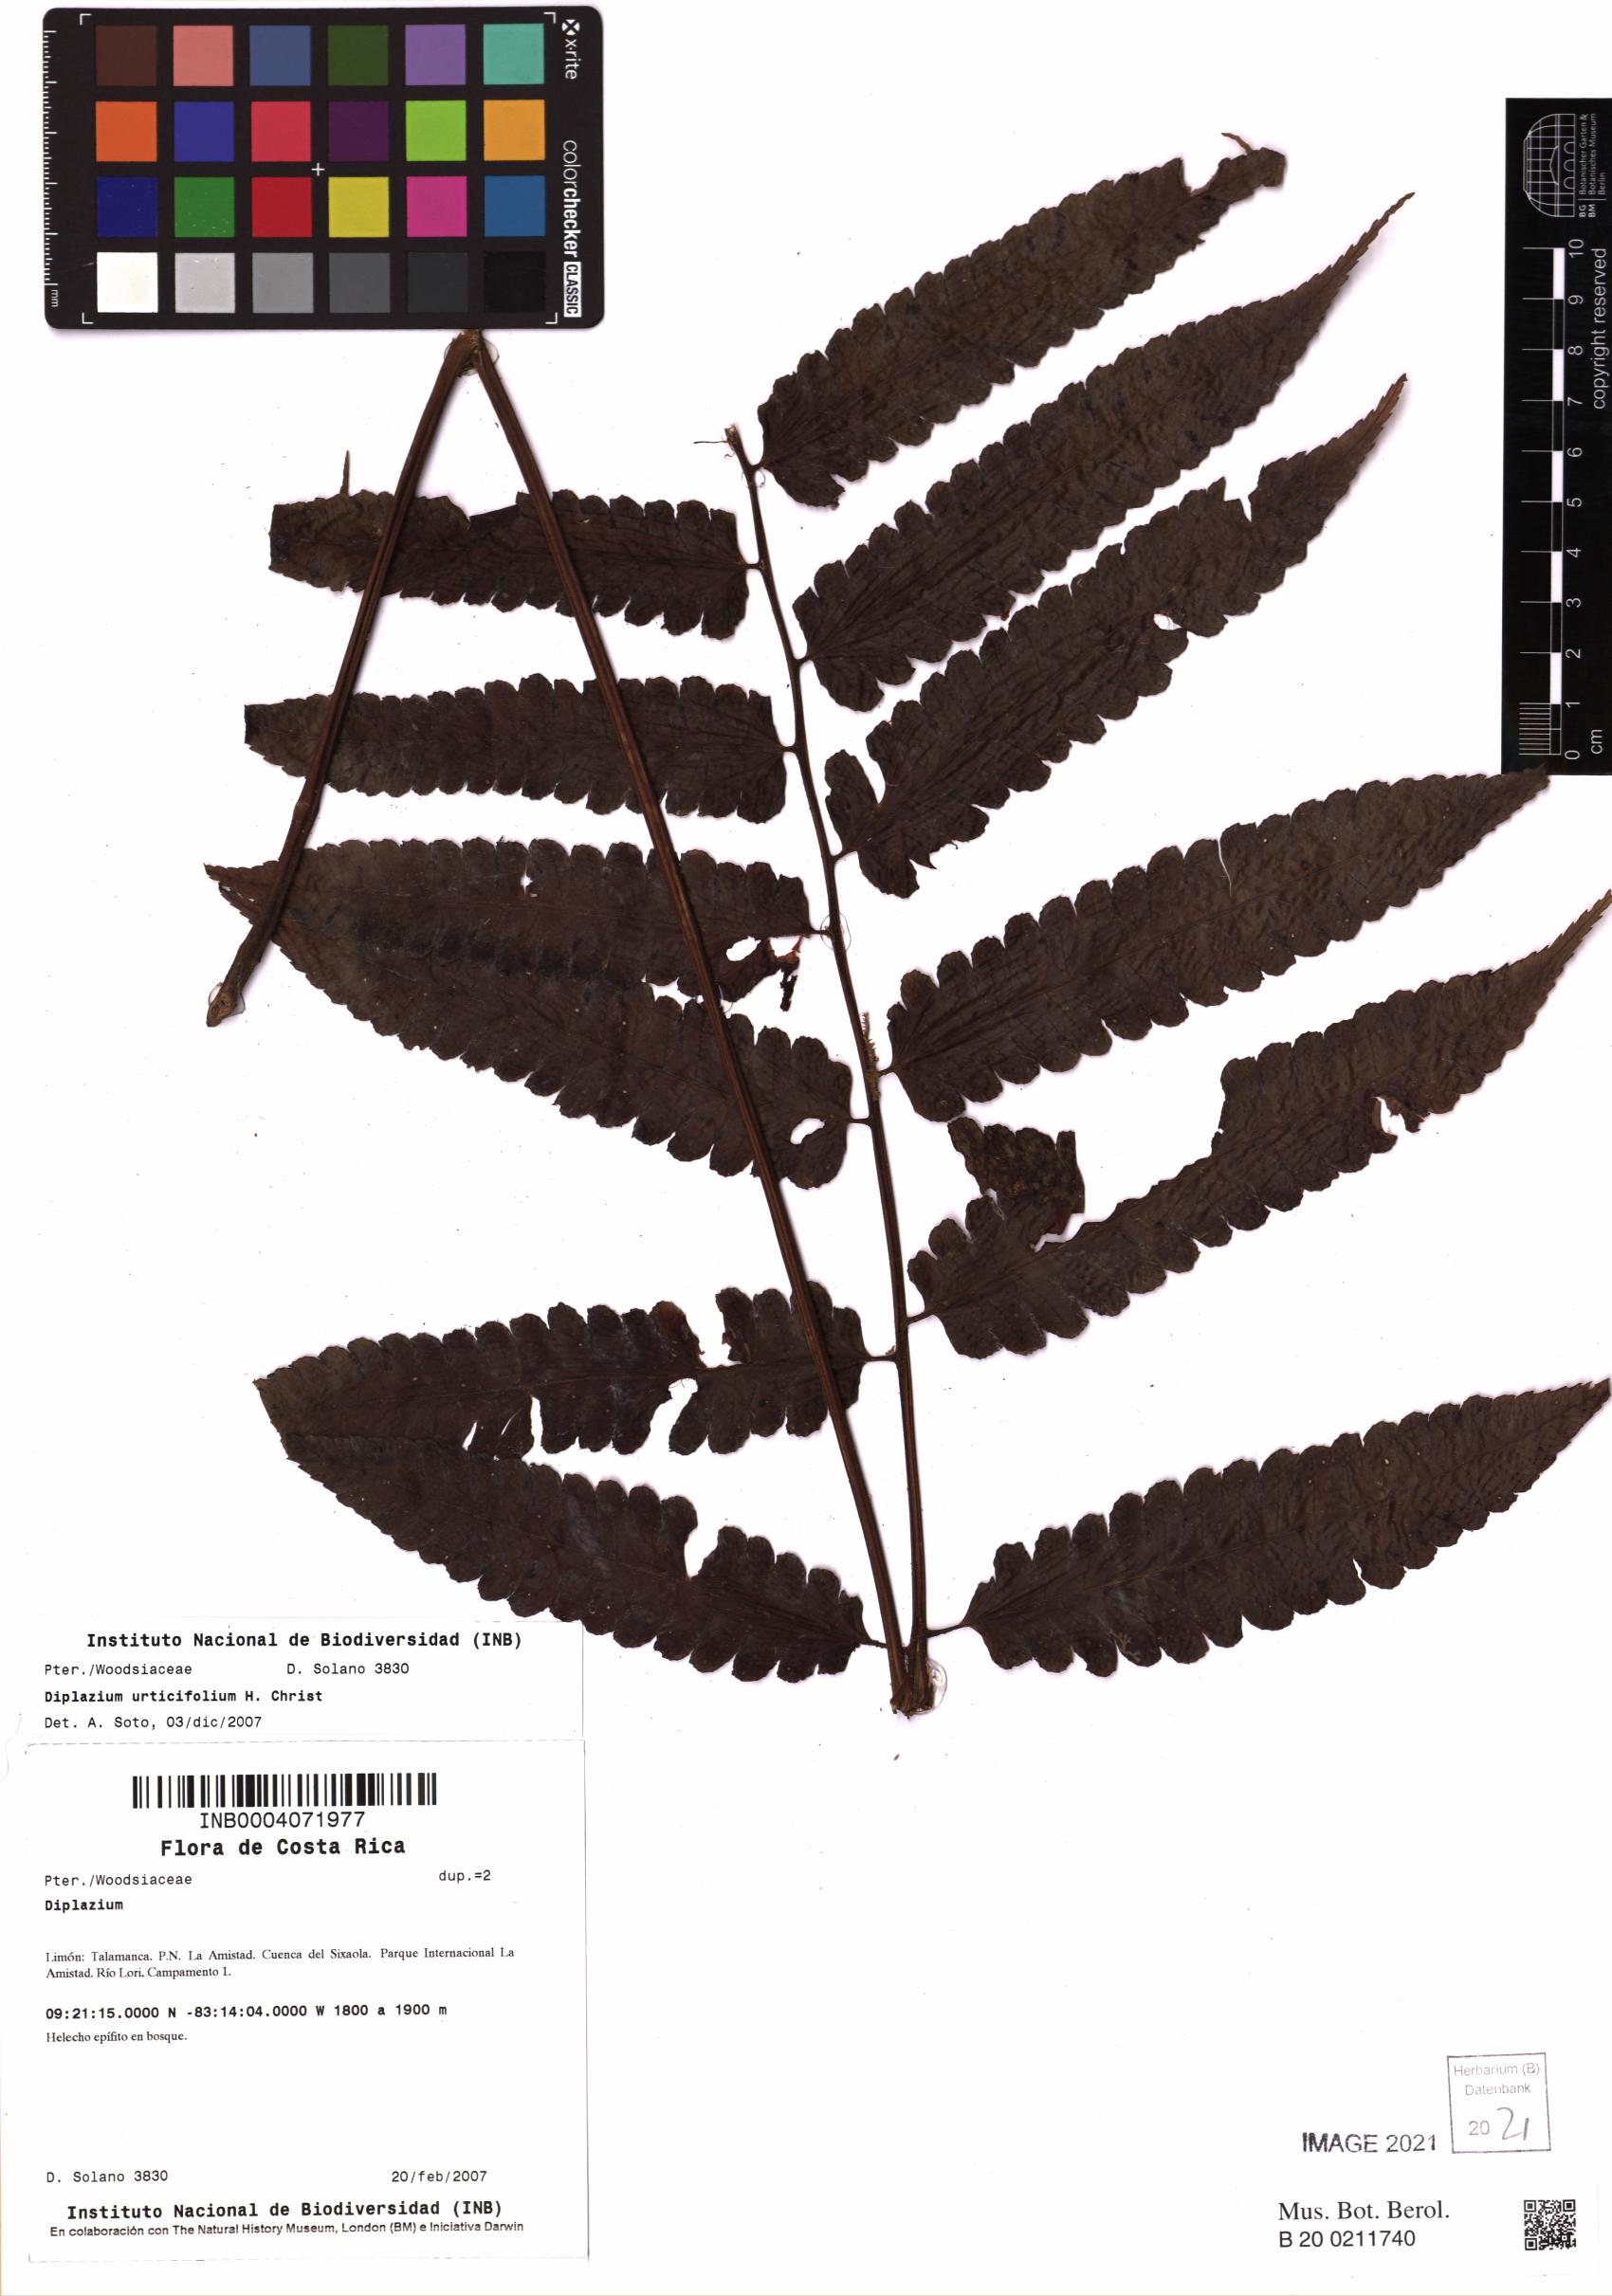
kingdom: Plantae
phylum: Tracheophyta
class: Polypodiopsida
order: Polypodiales
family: Athyriaceae
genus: Diplazium
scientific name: Diplazium urticifolium
